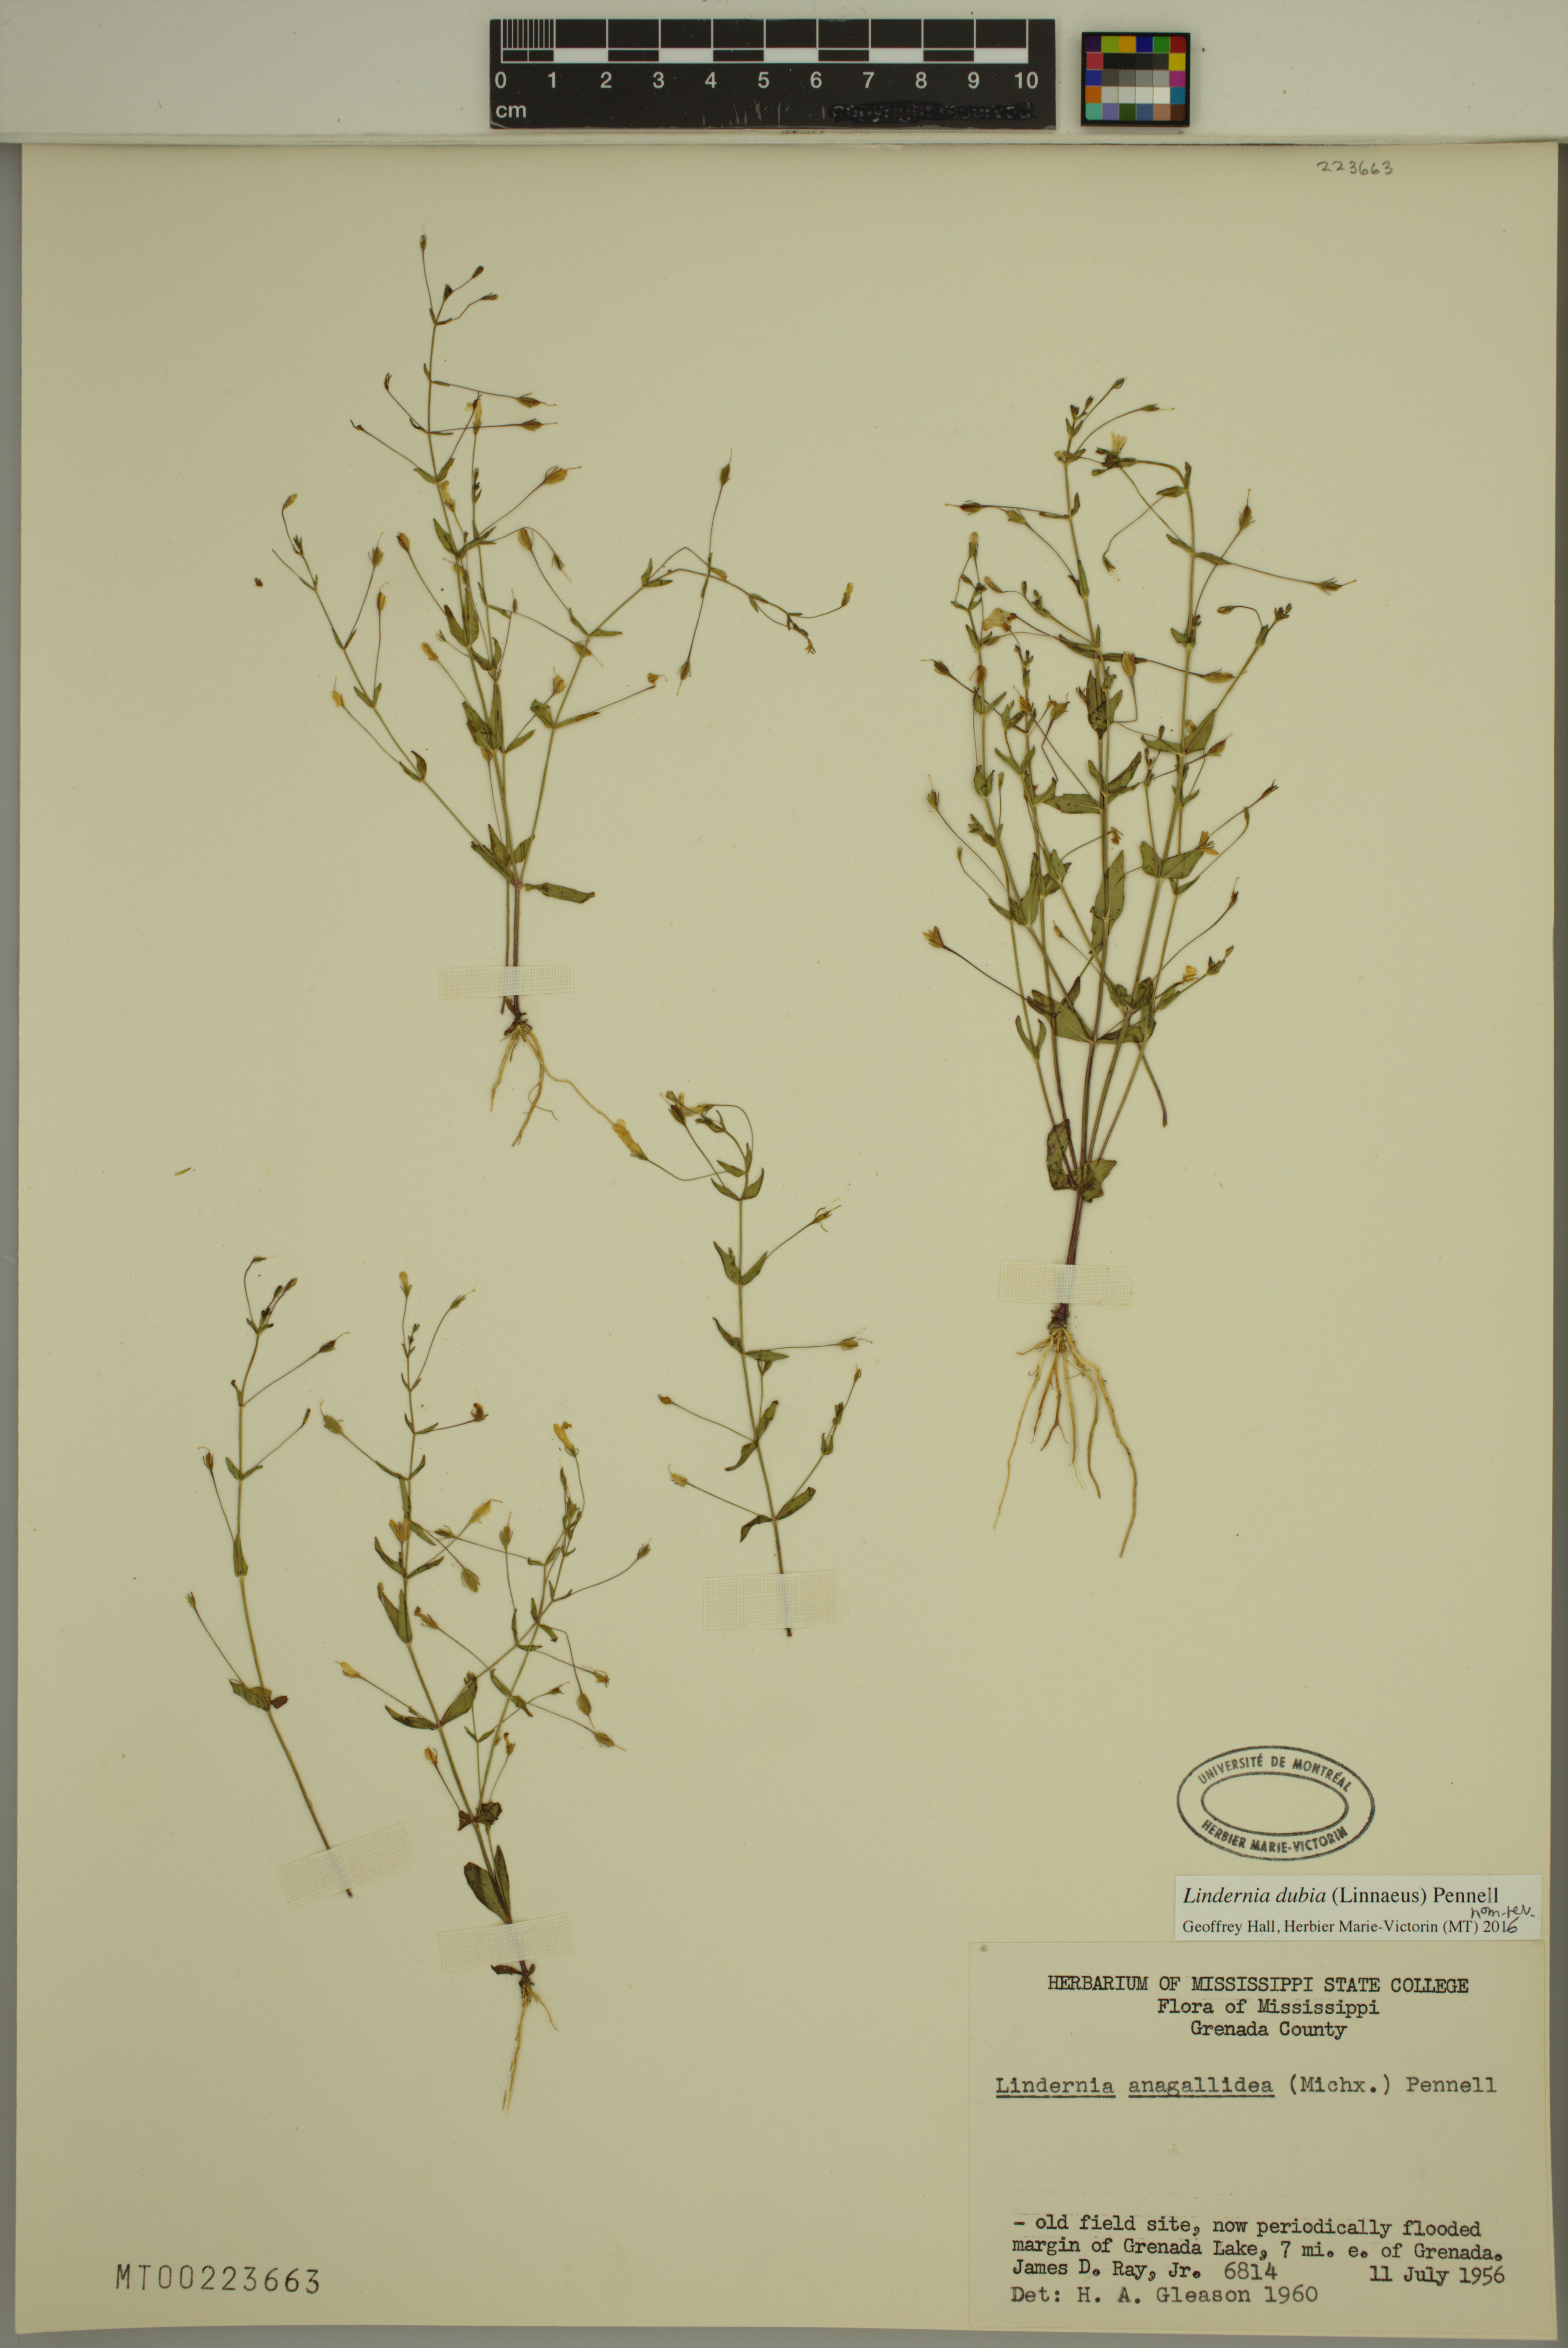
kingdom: Plantae
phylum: Tracheophyta
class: Magnoliopsida
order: Lamiales
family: Linderniaceae
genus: Lindernia
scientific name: Lindernia dubia
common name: Annual false pimpernel
